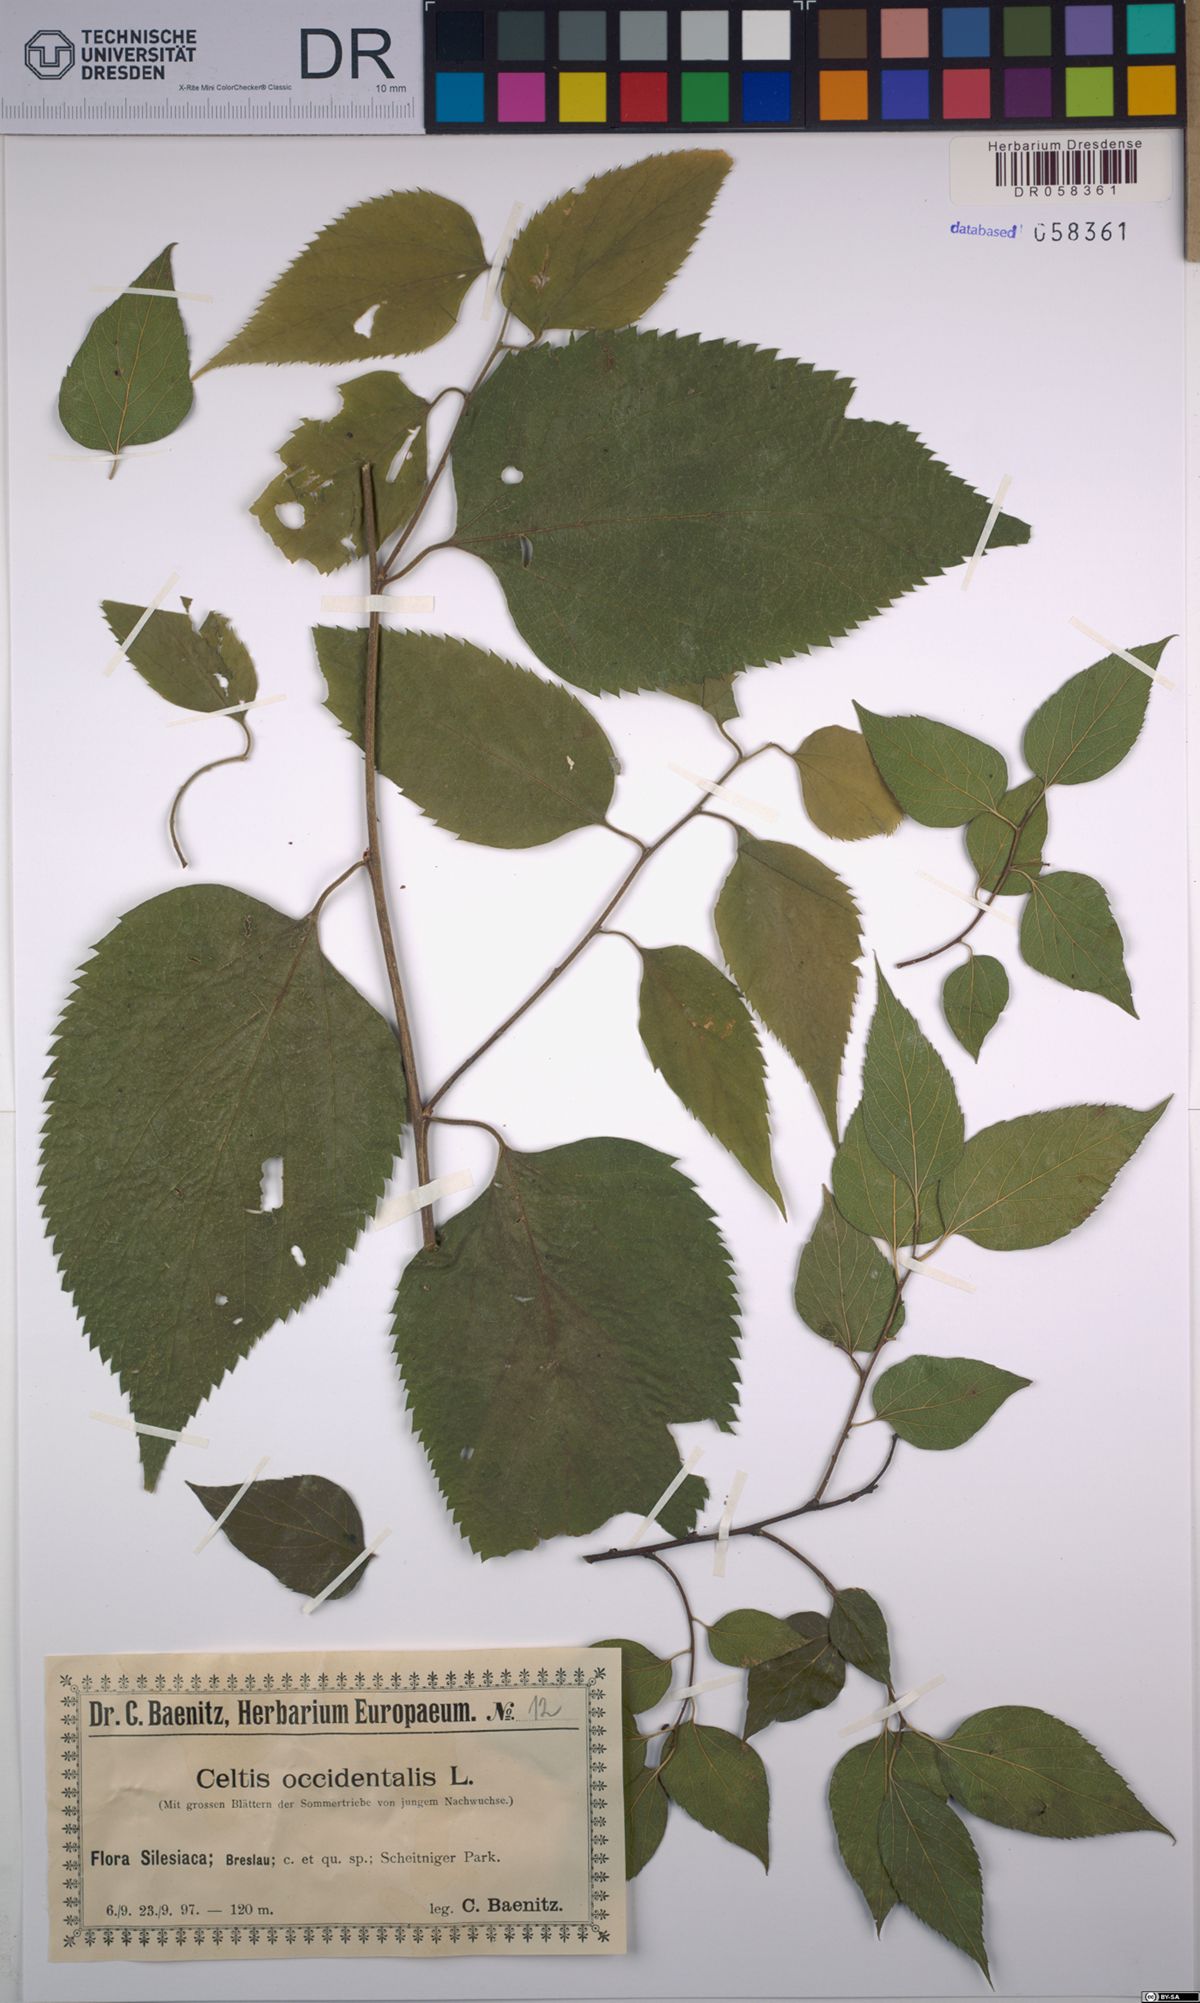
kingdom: Plantae
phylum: Tracheophyta
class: Magnoliopsida
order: Rosales
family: Cannabaceae
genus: Celtis
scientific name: Celtis occidentalis
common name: Common hackberry
